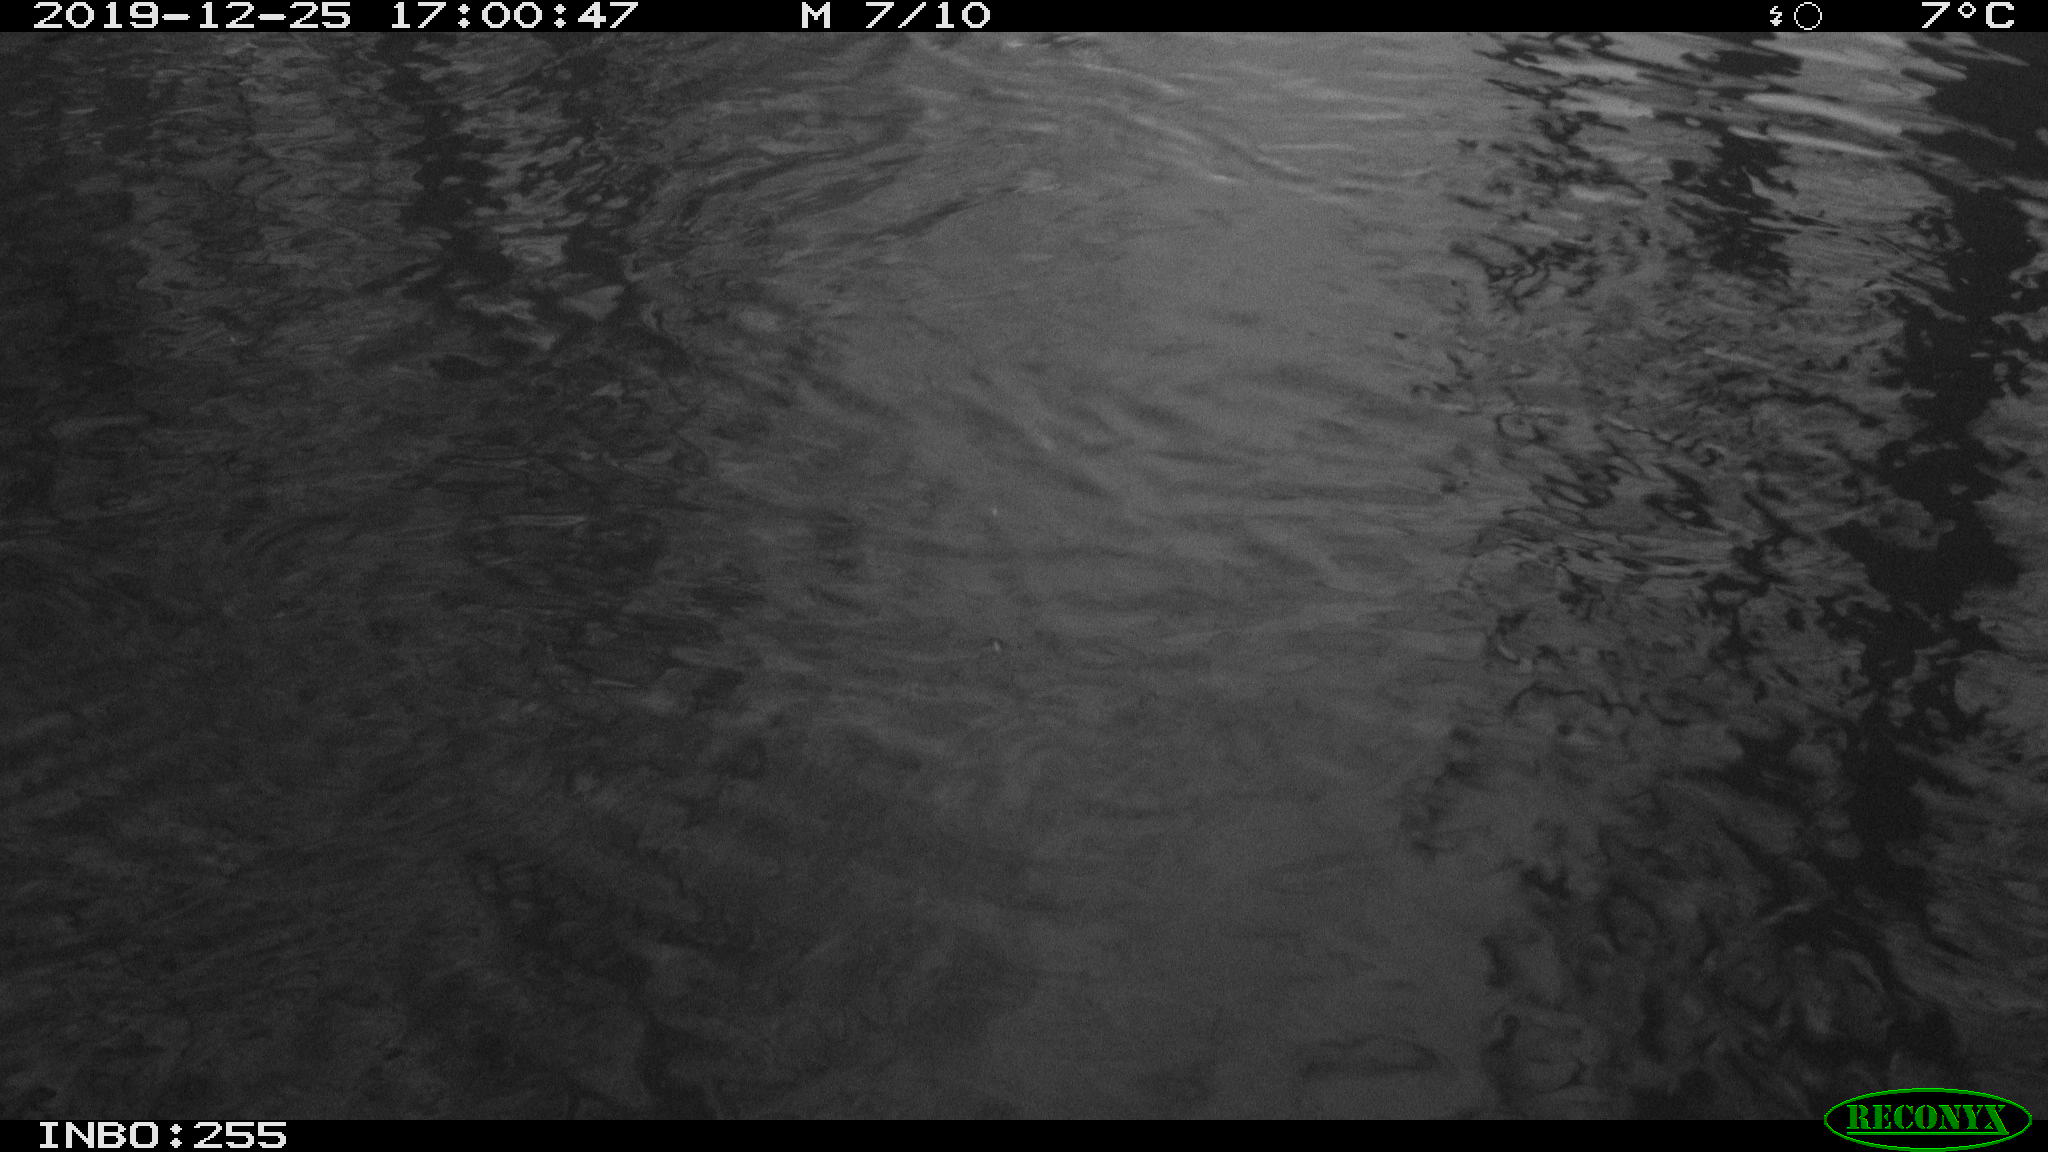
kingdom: Animalia
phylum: Chordata
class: Aves
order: Anseriformes
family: Anatidae
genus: Anas
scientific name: Anas platyrhynchos
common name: Mallard
